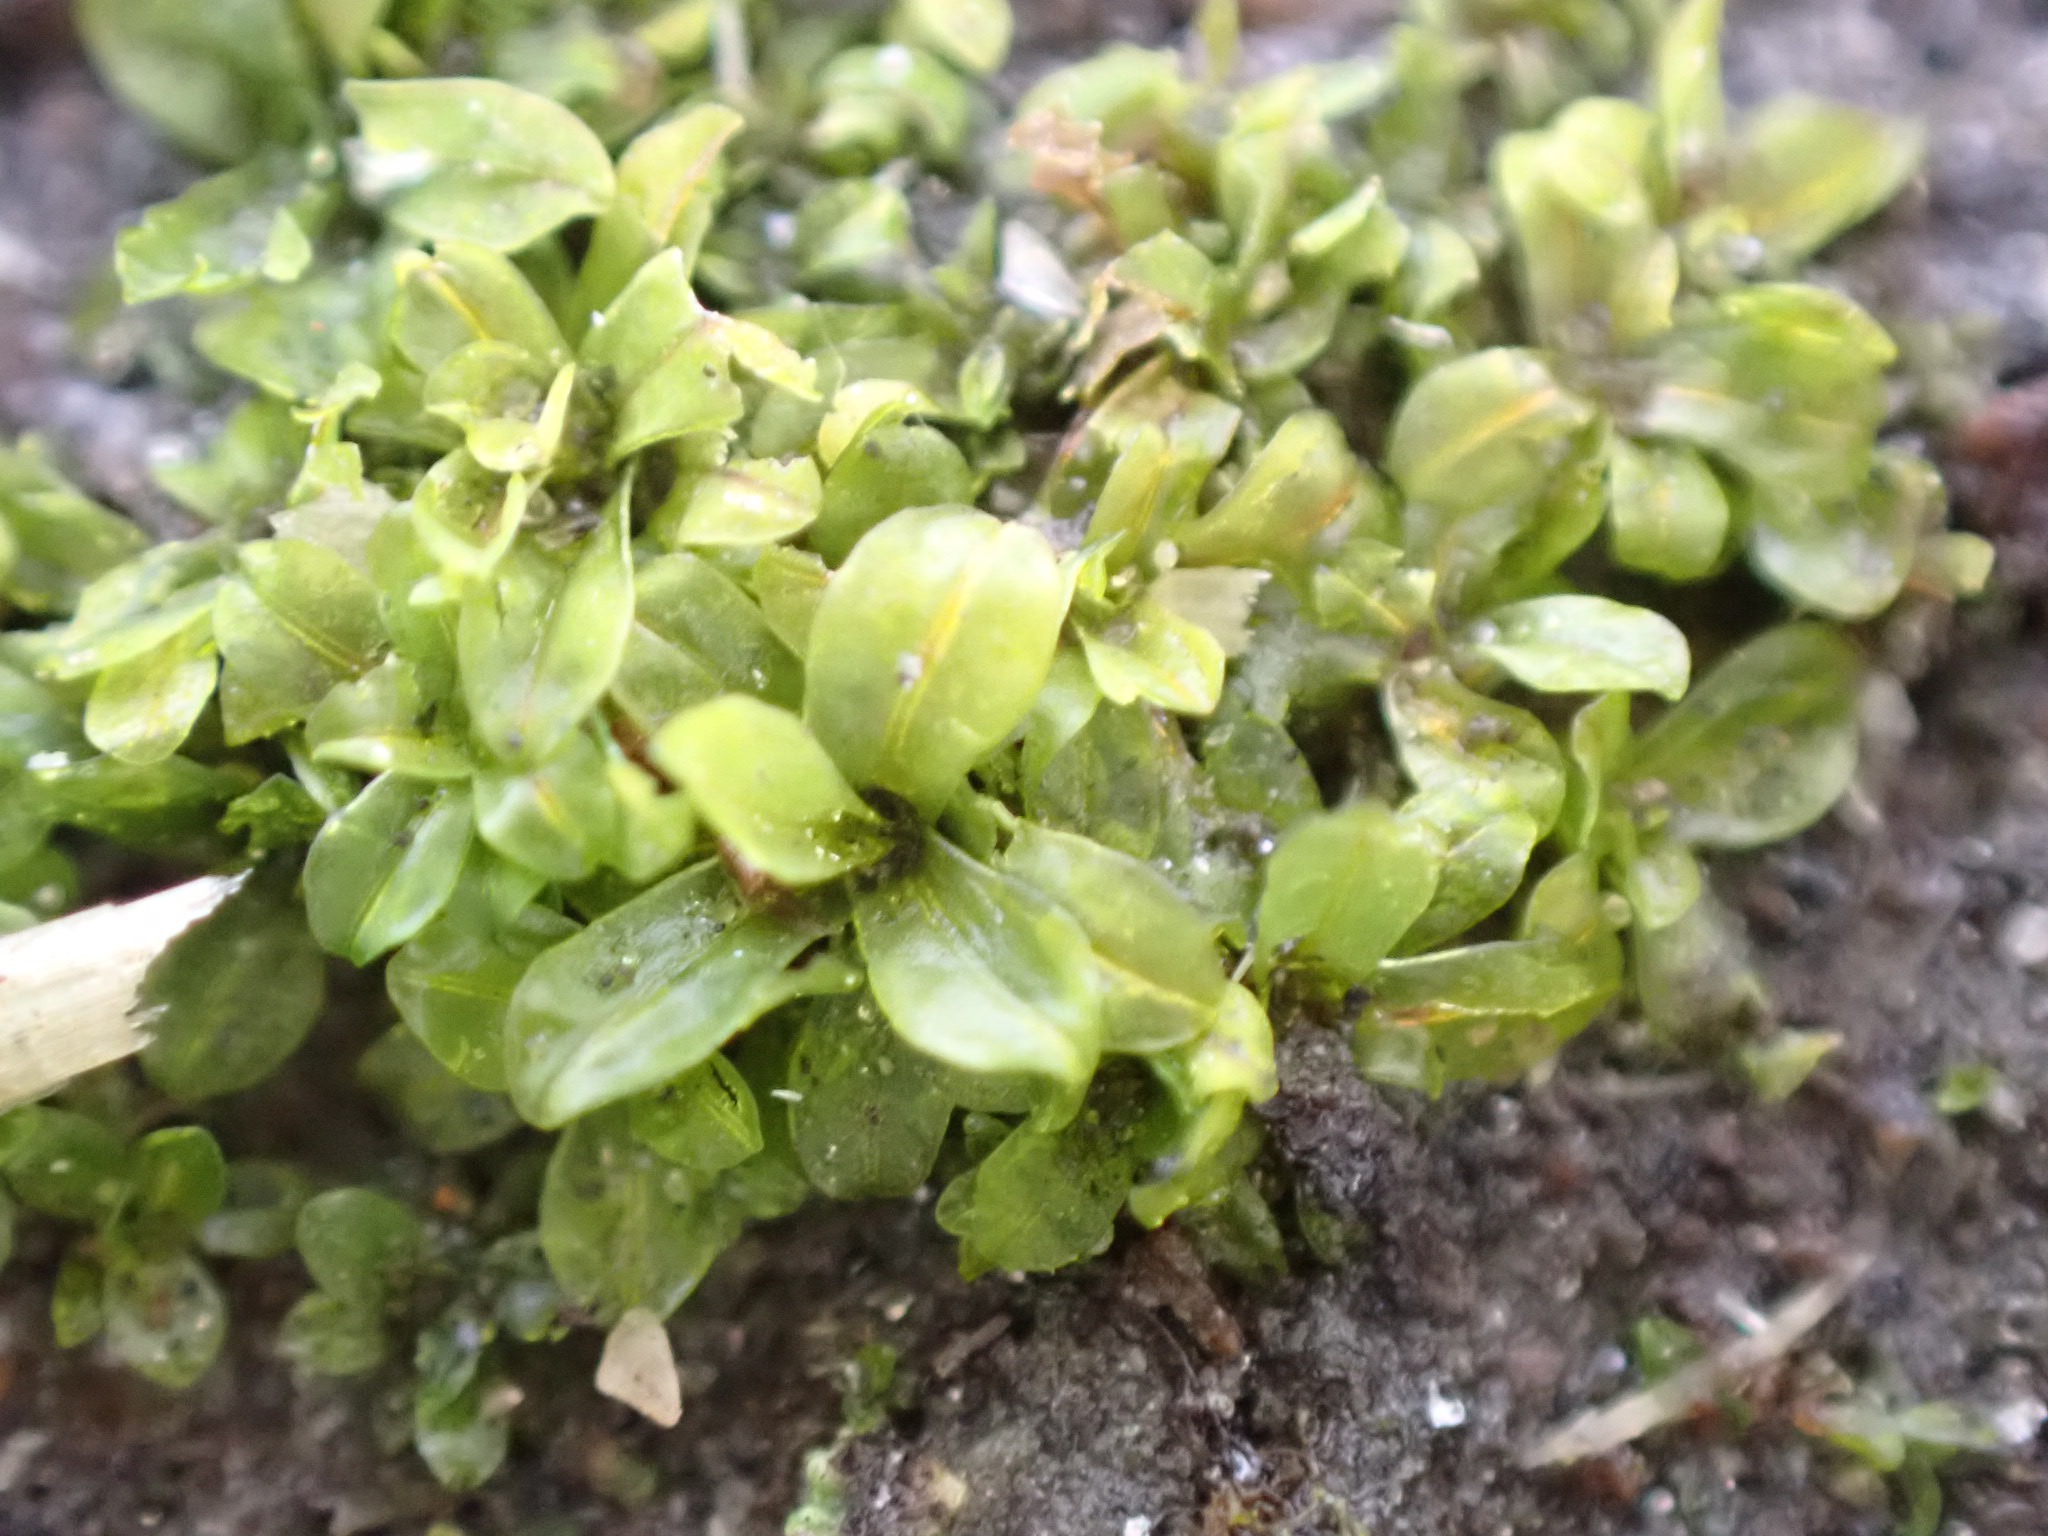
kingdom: Plantae
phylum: Bryophyta
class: Bryopsida
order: Pottiales
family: Pottiaceae
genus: Syntrichia
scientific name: Syntrichia latifolia
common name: Butbladet hårstjerne
